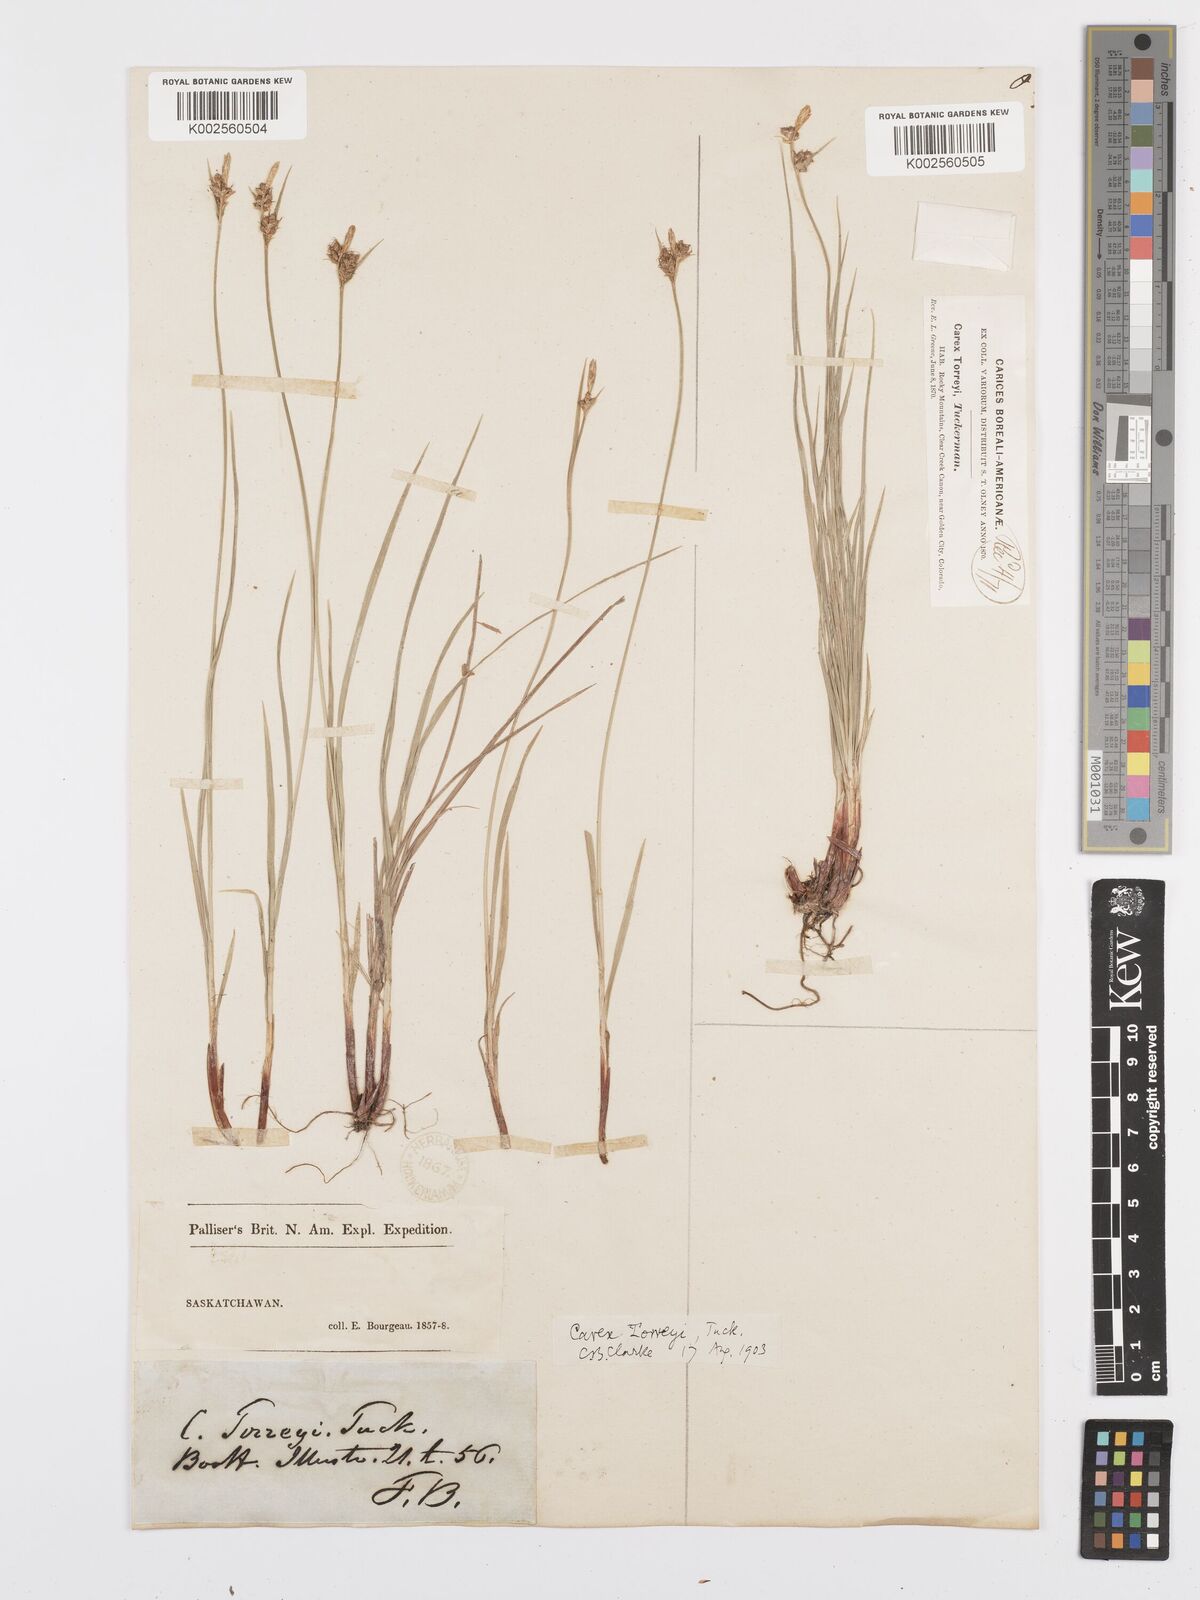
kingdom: Plantae
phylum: Tracheophyta
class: Liliopsida
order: Poales
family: Cyperaceae
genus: Carex
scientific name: Carex torreyi
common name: Torrey's sedge
